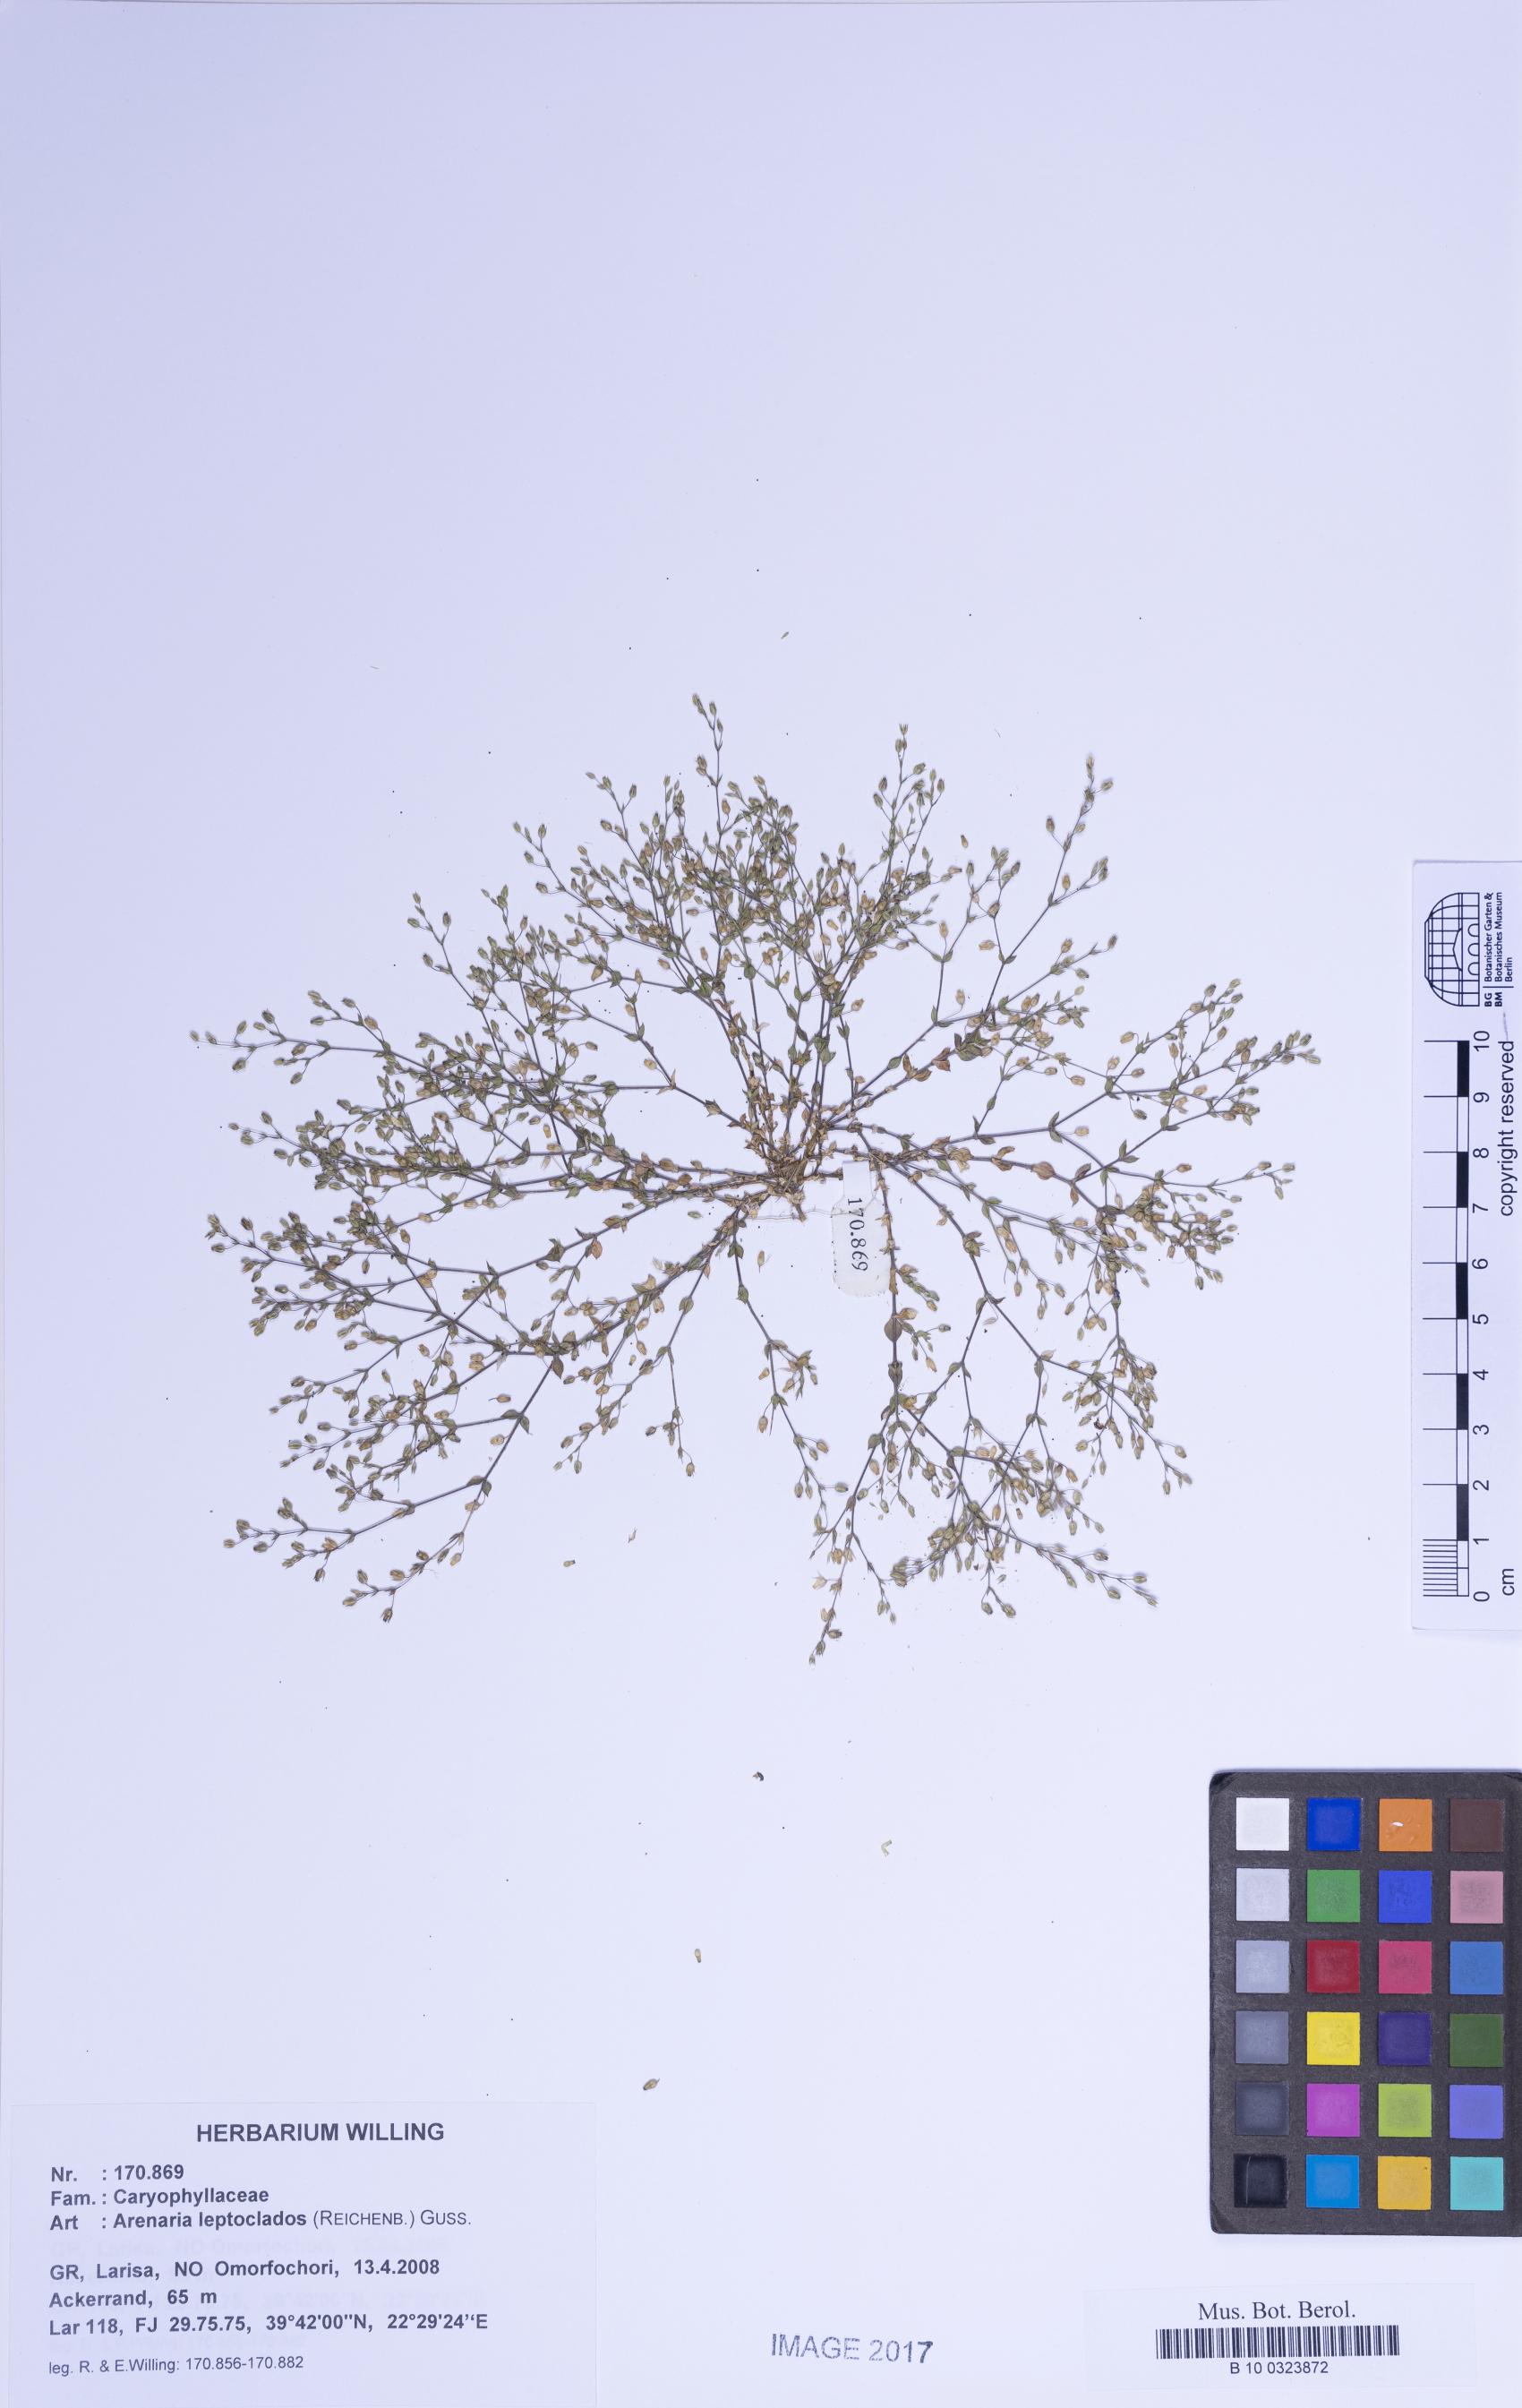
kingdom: Plantae
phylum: Tracheophyta
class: Magnoliopsida
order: Caryophyllales
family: Caryophyllaceae
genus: Arenaria
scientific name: Arenaria leptoclados
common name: Thyme-leaved sandwort
